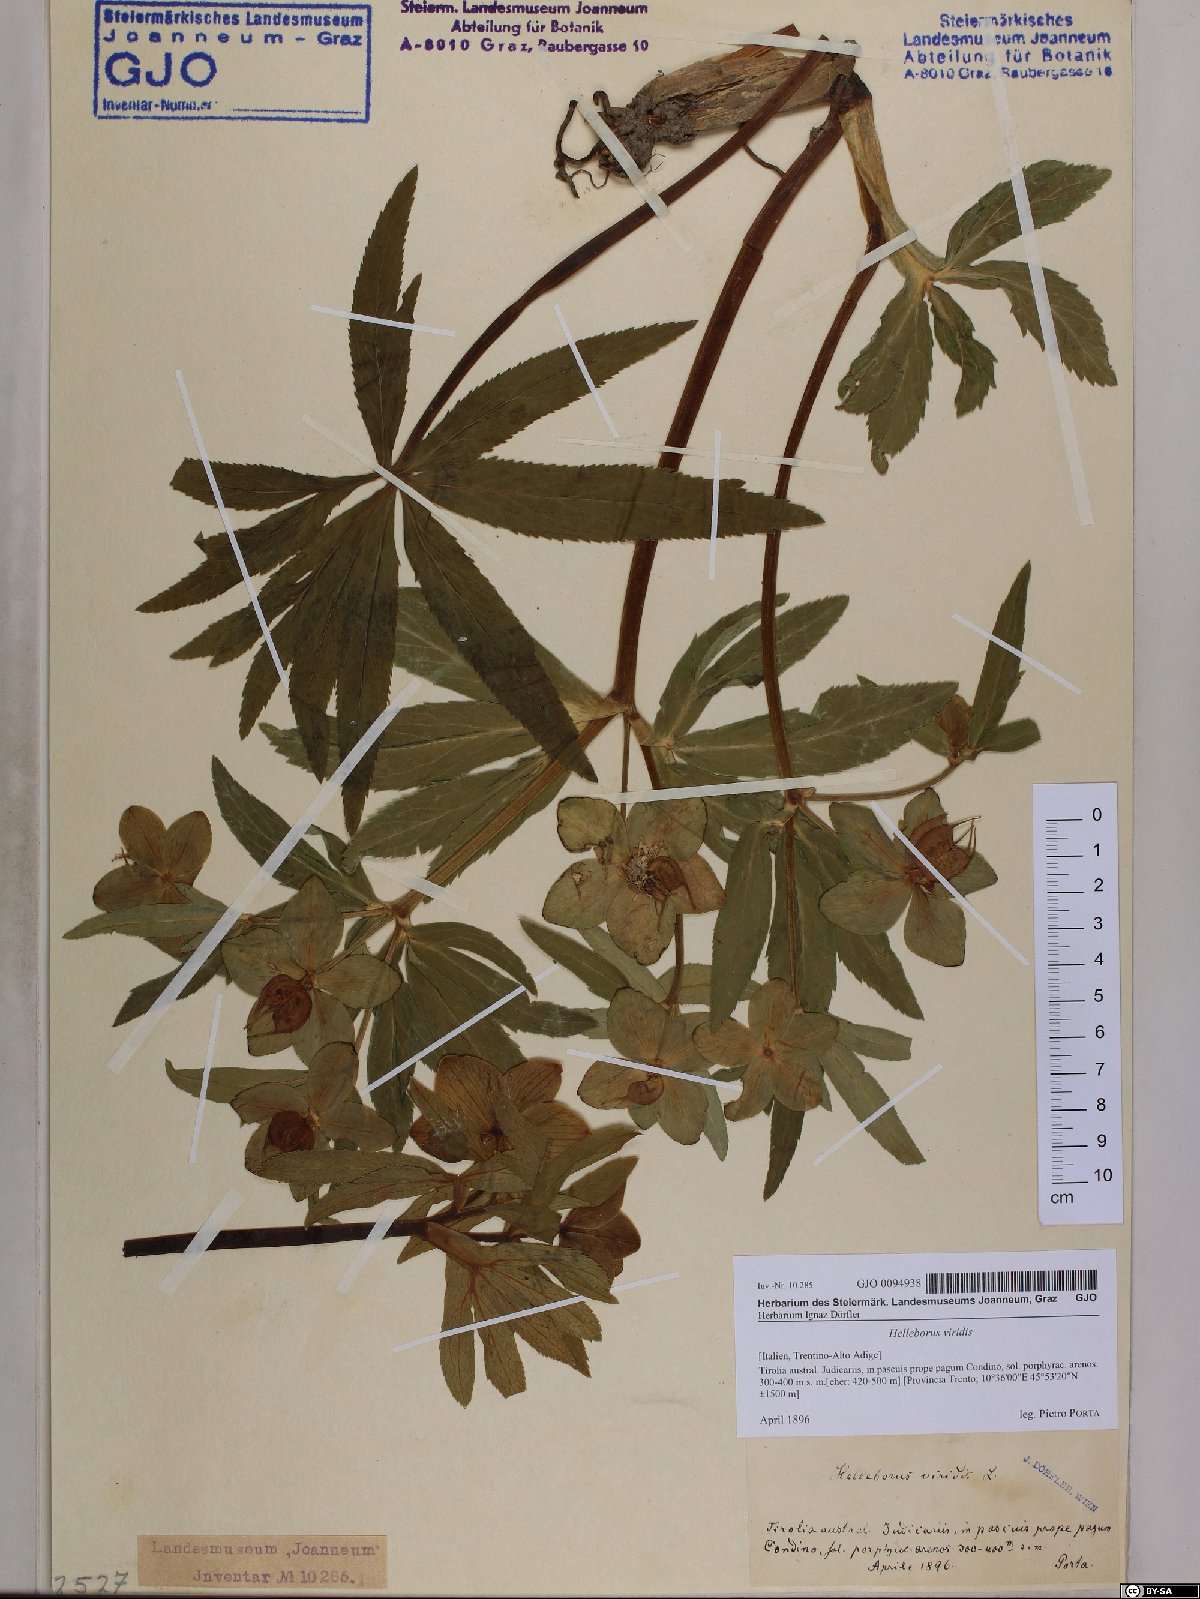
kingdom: Plantae
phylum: Tracheophyta
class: Magnoliopsida
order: Ranunculales
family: Ranunculaceae
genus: Helleborus
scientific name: Helleborus viridis
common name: Green hellebore
